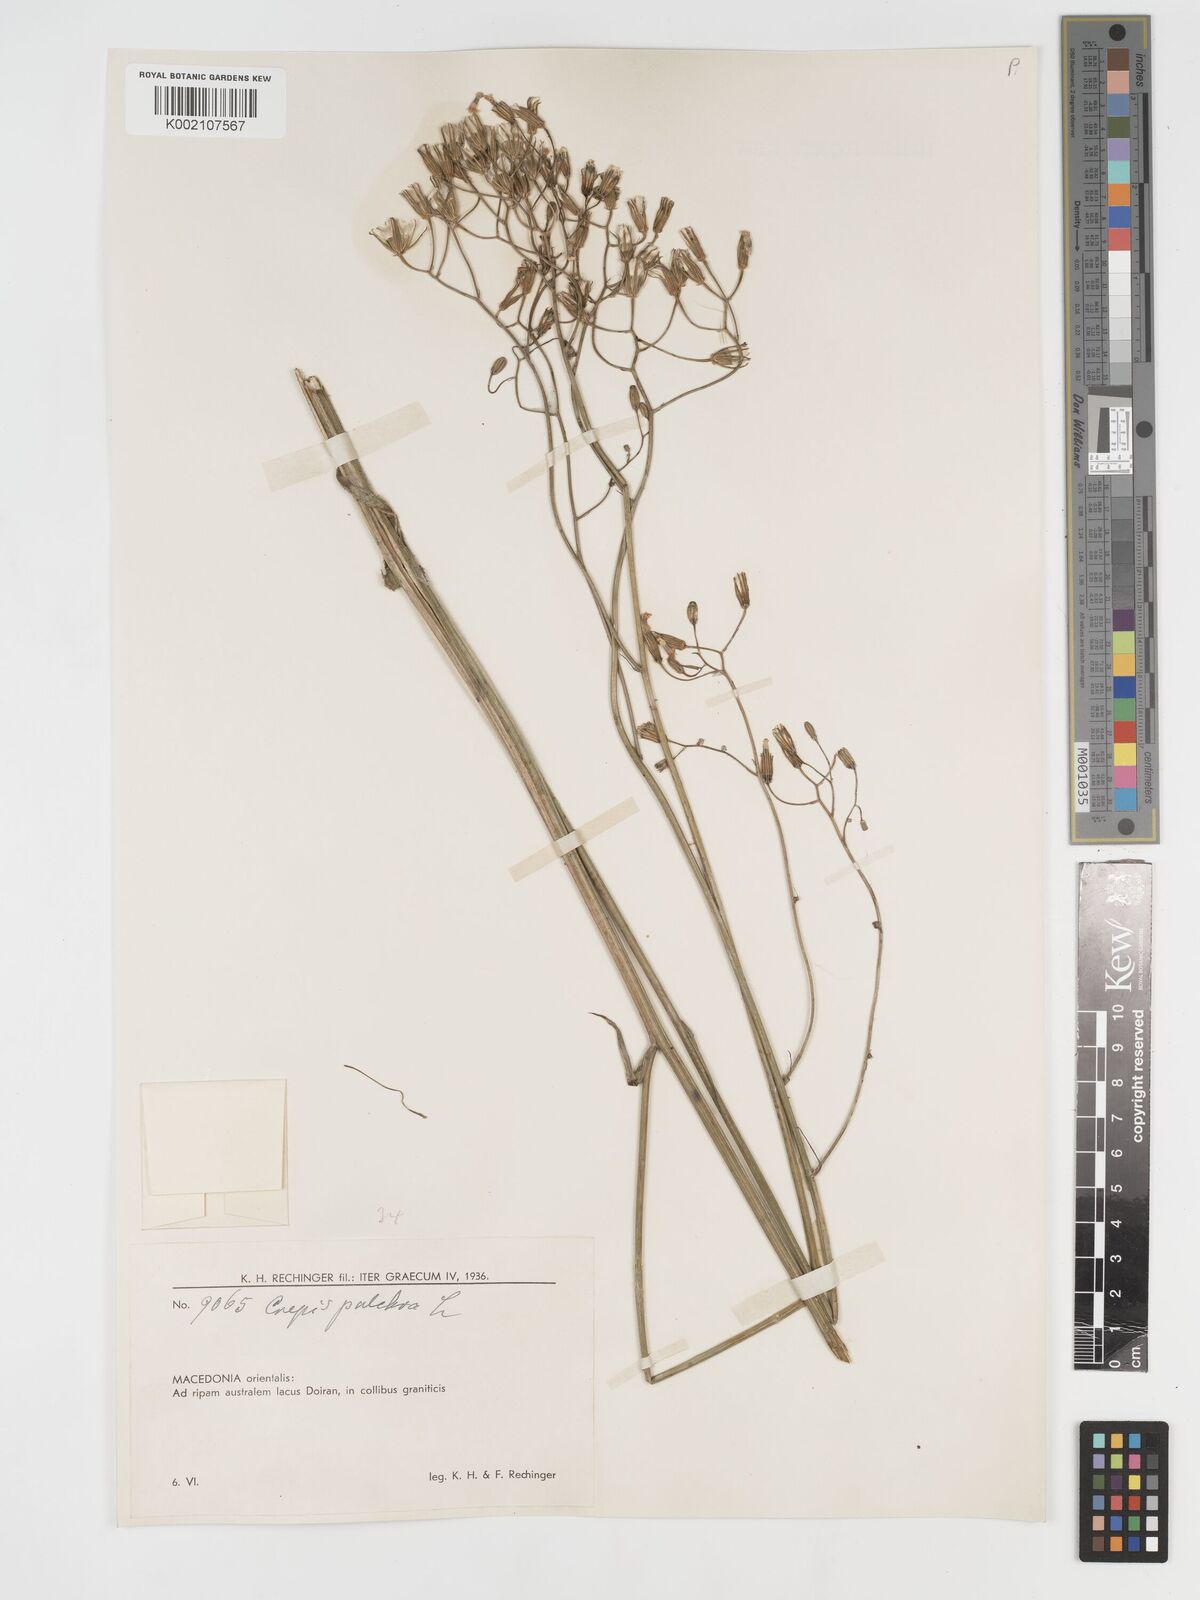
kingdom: Plantae
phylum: Tracheophyta
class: Magnoliopsida
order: Asterales
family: Asteraceae
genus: Crepis
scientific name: Crepis pulchra
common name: Hawk's-beard
